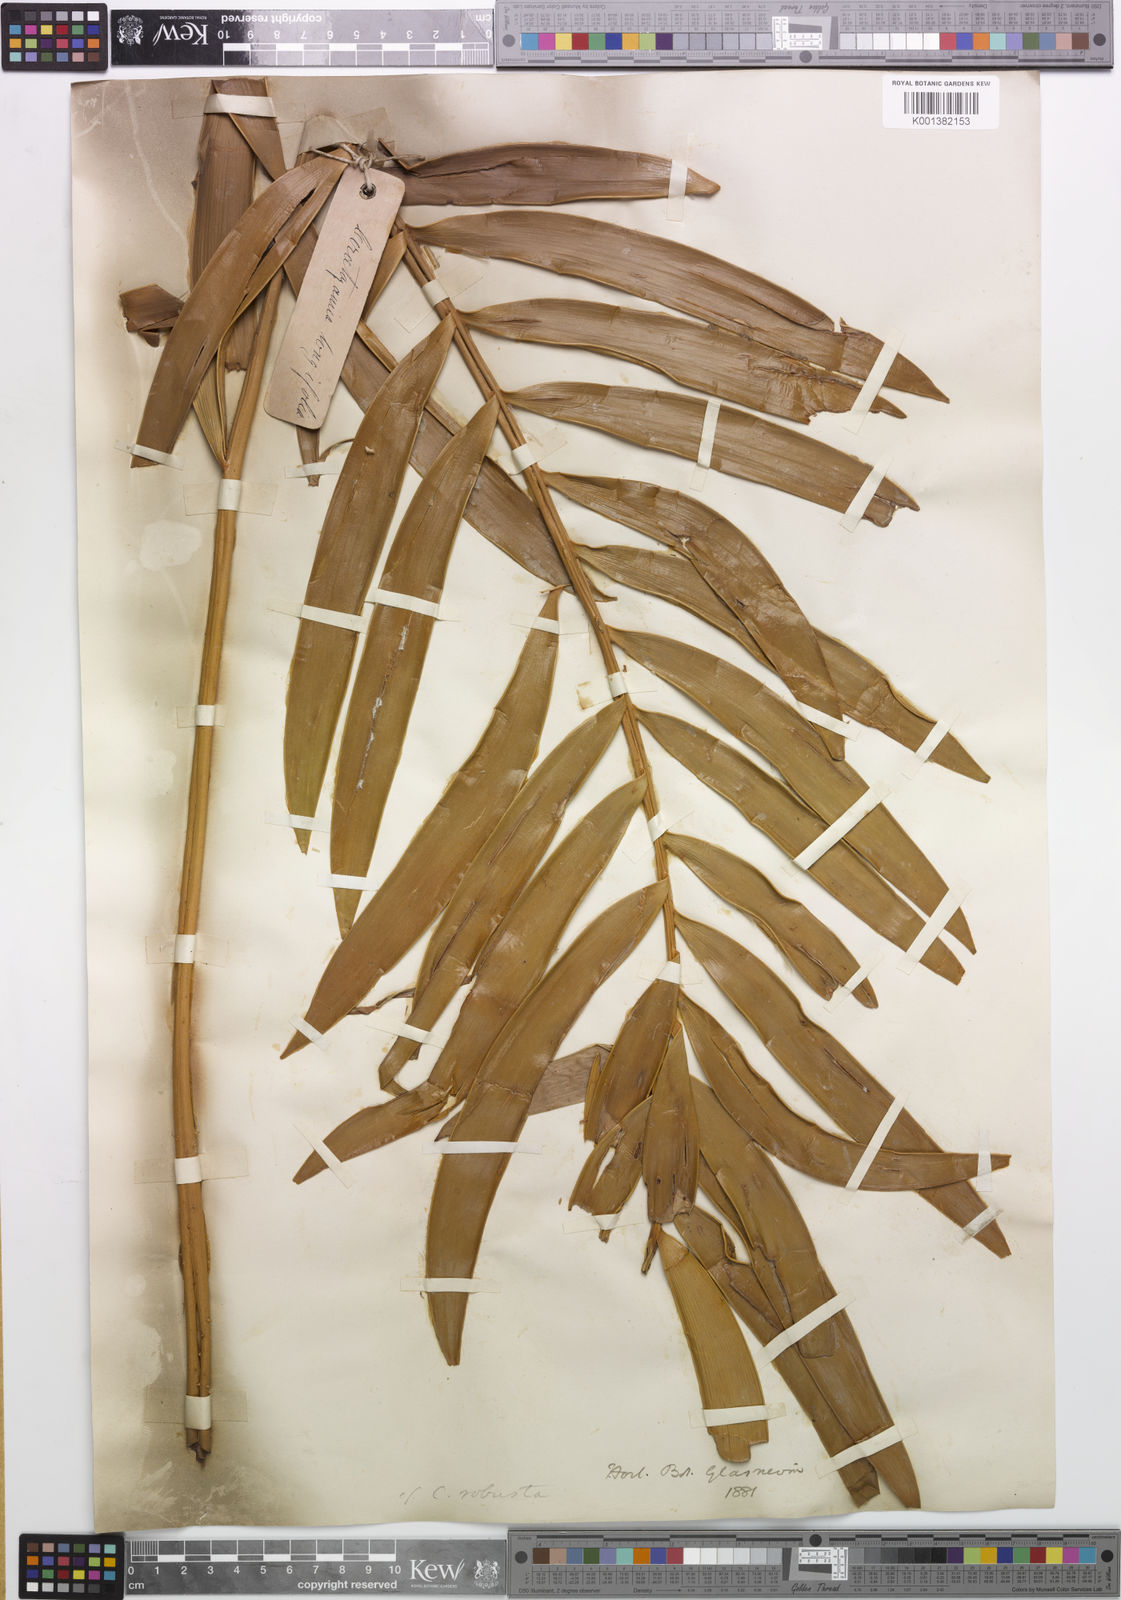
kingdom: Plantae
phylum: Tracheophyta
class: Cycadopsida
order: Cycadales
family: Zamiaceae
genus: Ceratozamia
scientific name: Ceratozamia fuscoviridis
